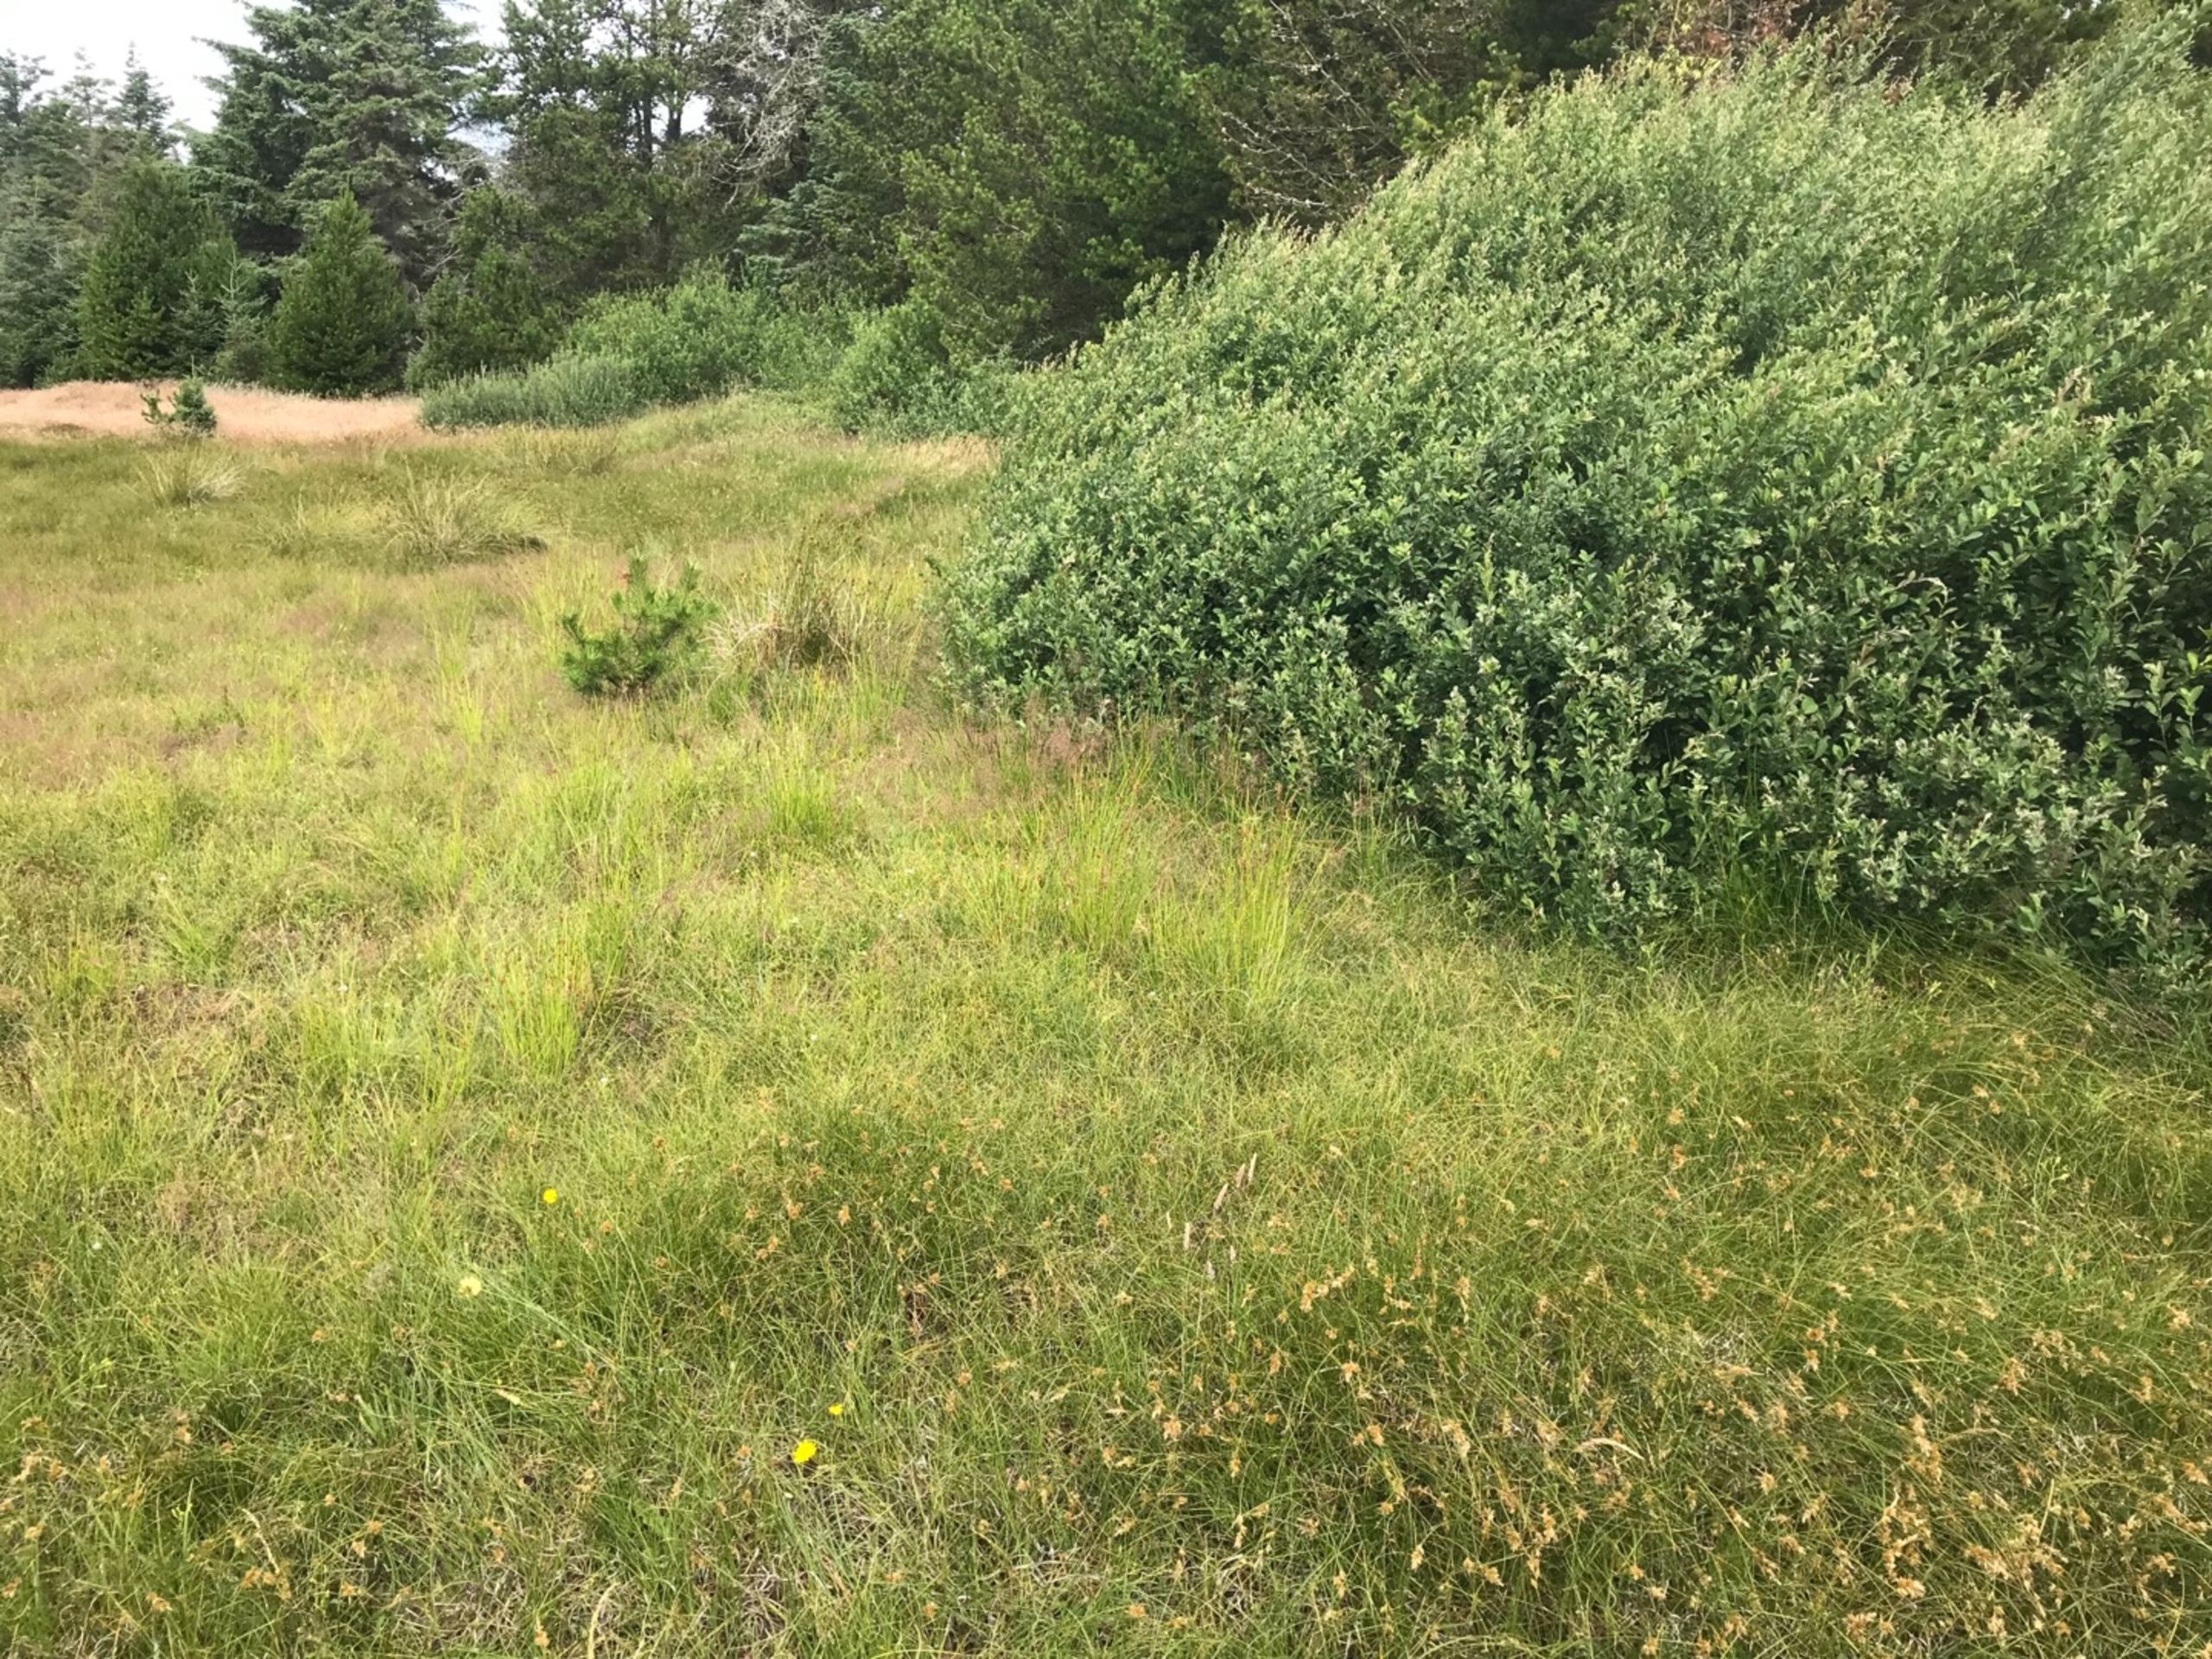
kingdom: Animalia
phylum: Chordata
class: Squamata
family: Lacertidae
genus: Zootoca
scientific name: Zootoca vivipara
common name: Skovfirben
